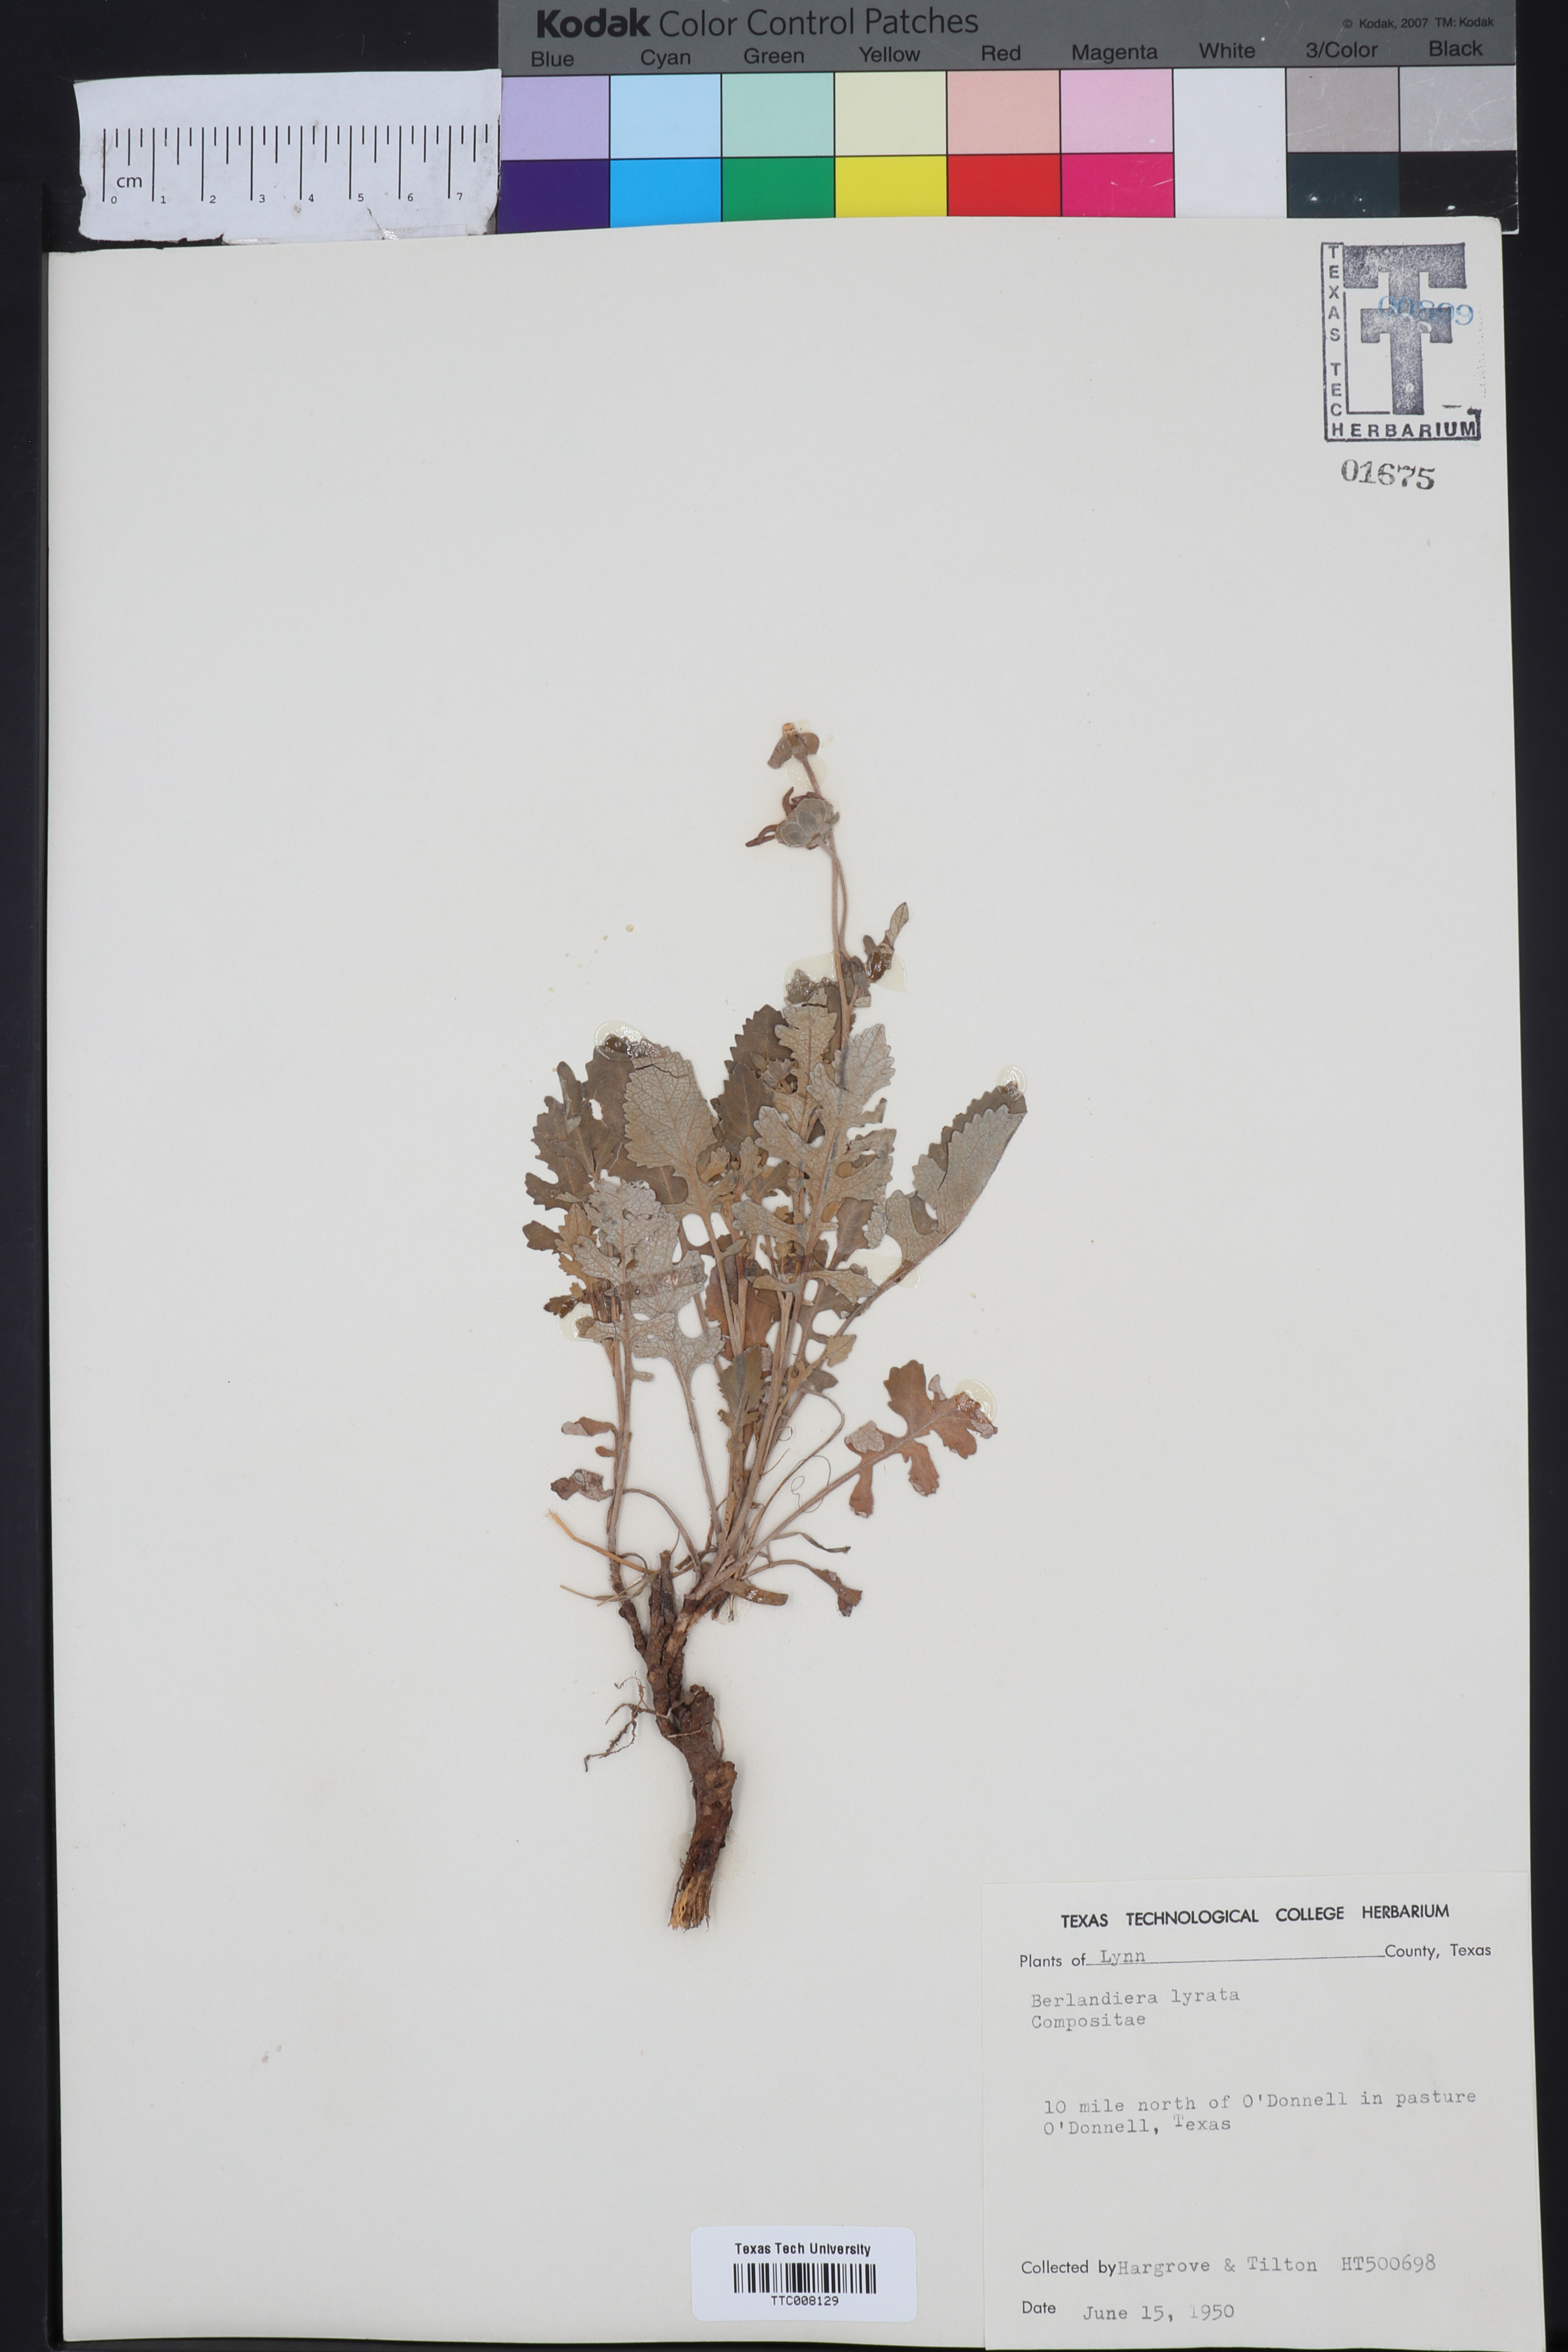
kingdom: Plantae
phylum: Tracheophyta
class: Magnoliopsida
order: Asterales
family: Asteraceae
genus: Berlandiera
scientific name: Berlandiera lyrata
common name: Chocolate-flower
